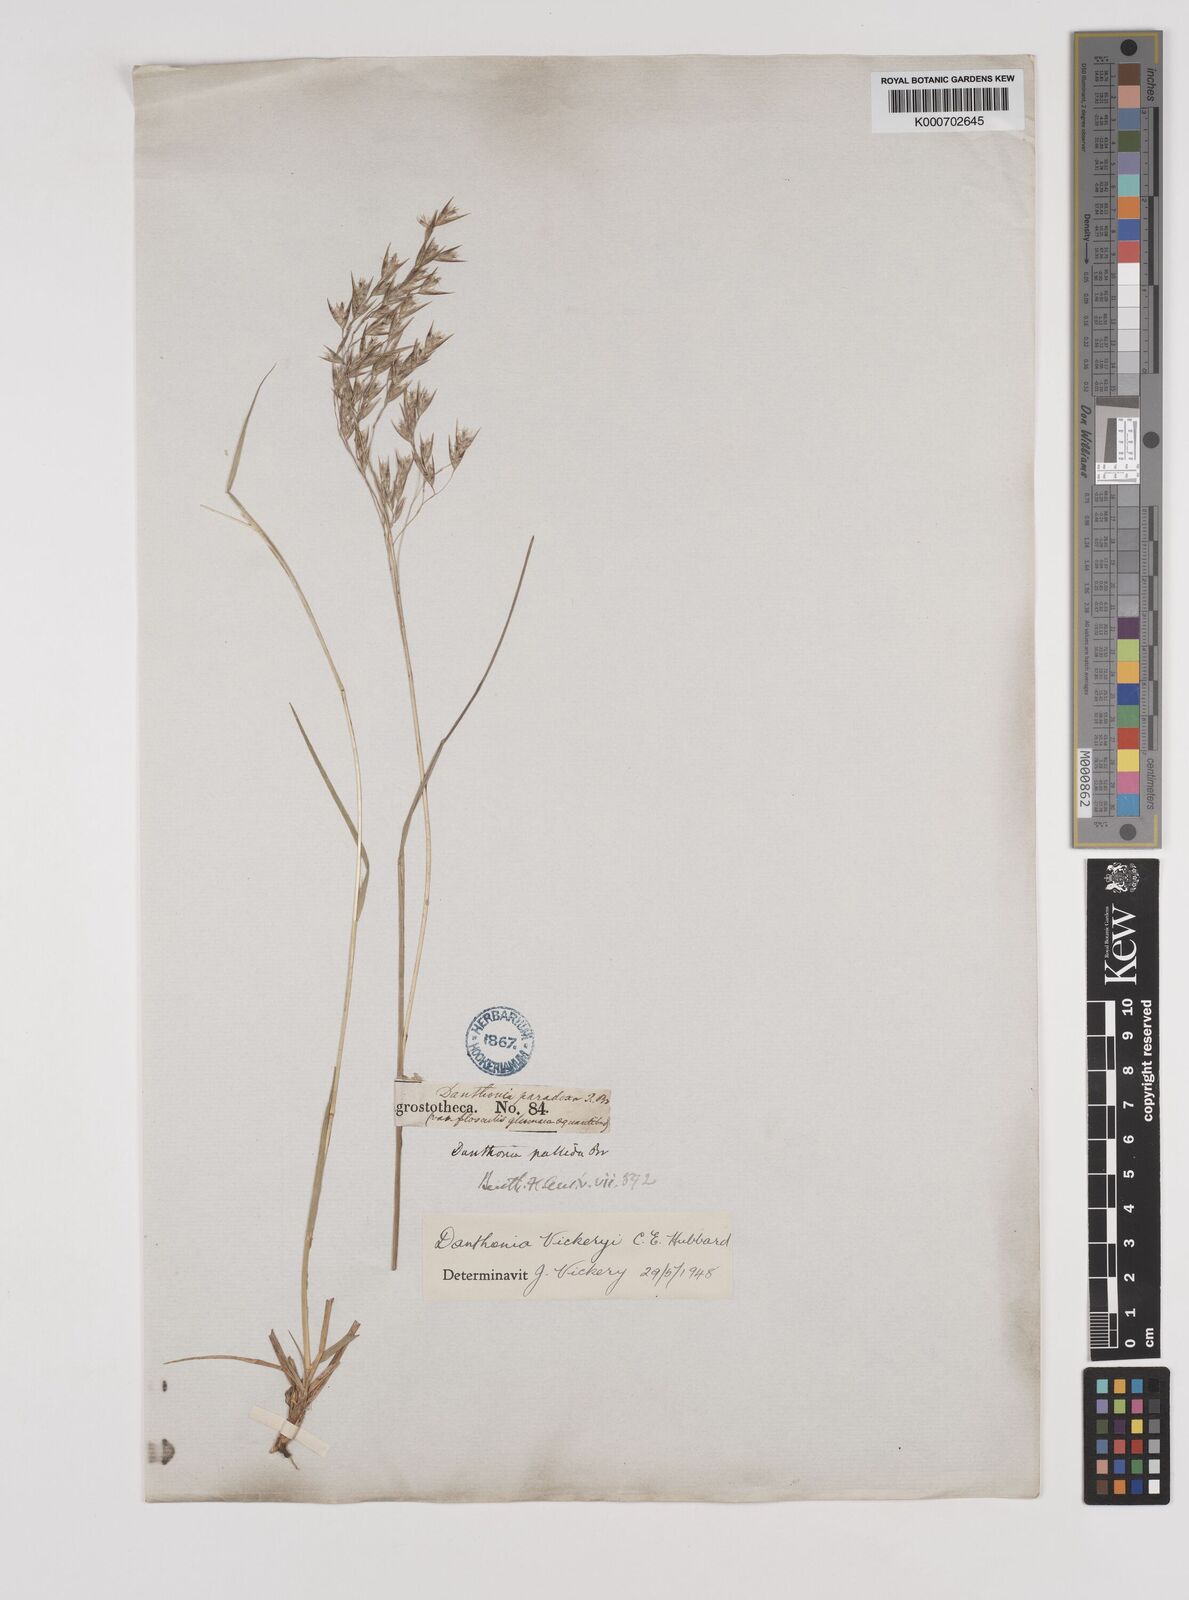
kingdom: Plantae
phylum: Tracheophyta
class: Liliopsida
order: Poales
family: Poaceae
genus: Plinthanthesis
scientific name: Plinthanthesis urvillei
